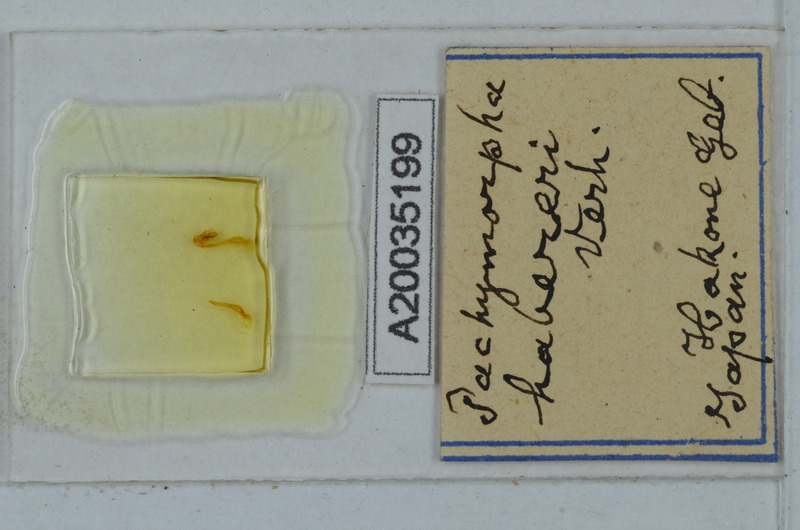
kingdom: Animalia
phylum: Arthropoda
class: Insecta
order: Phasmida
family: Phasmatidae
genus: Pachymorpha
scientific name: Pachymorpha
